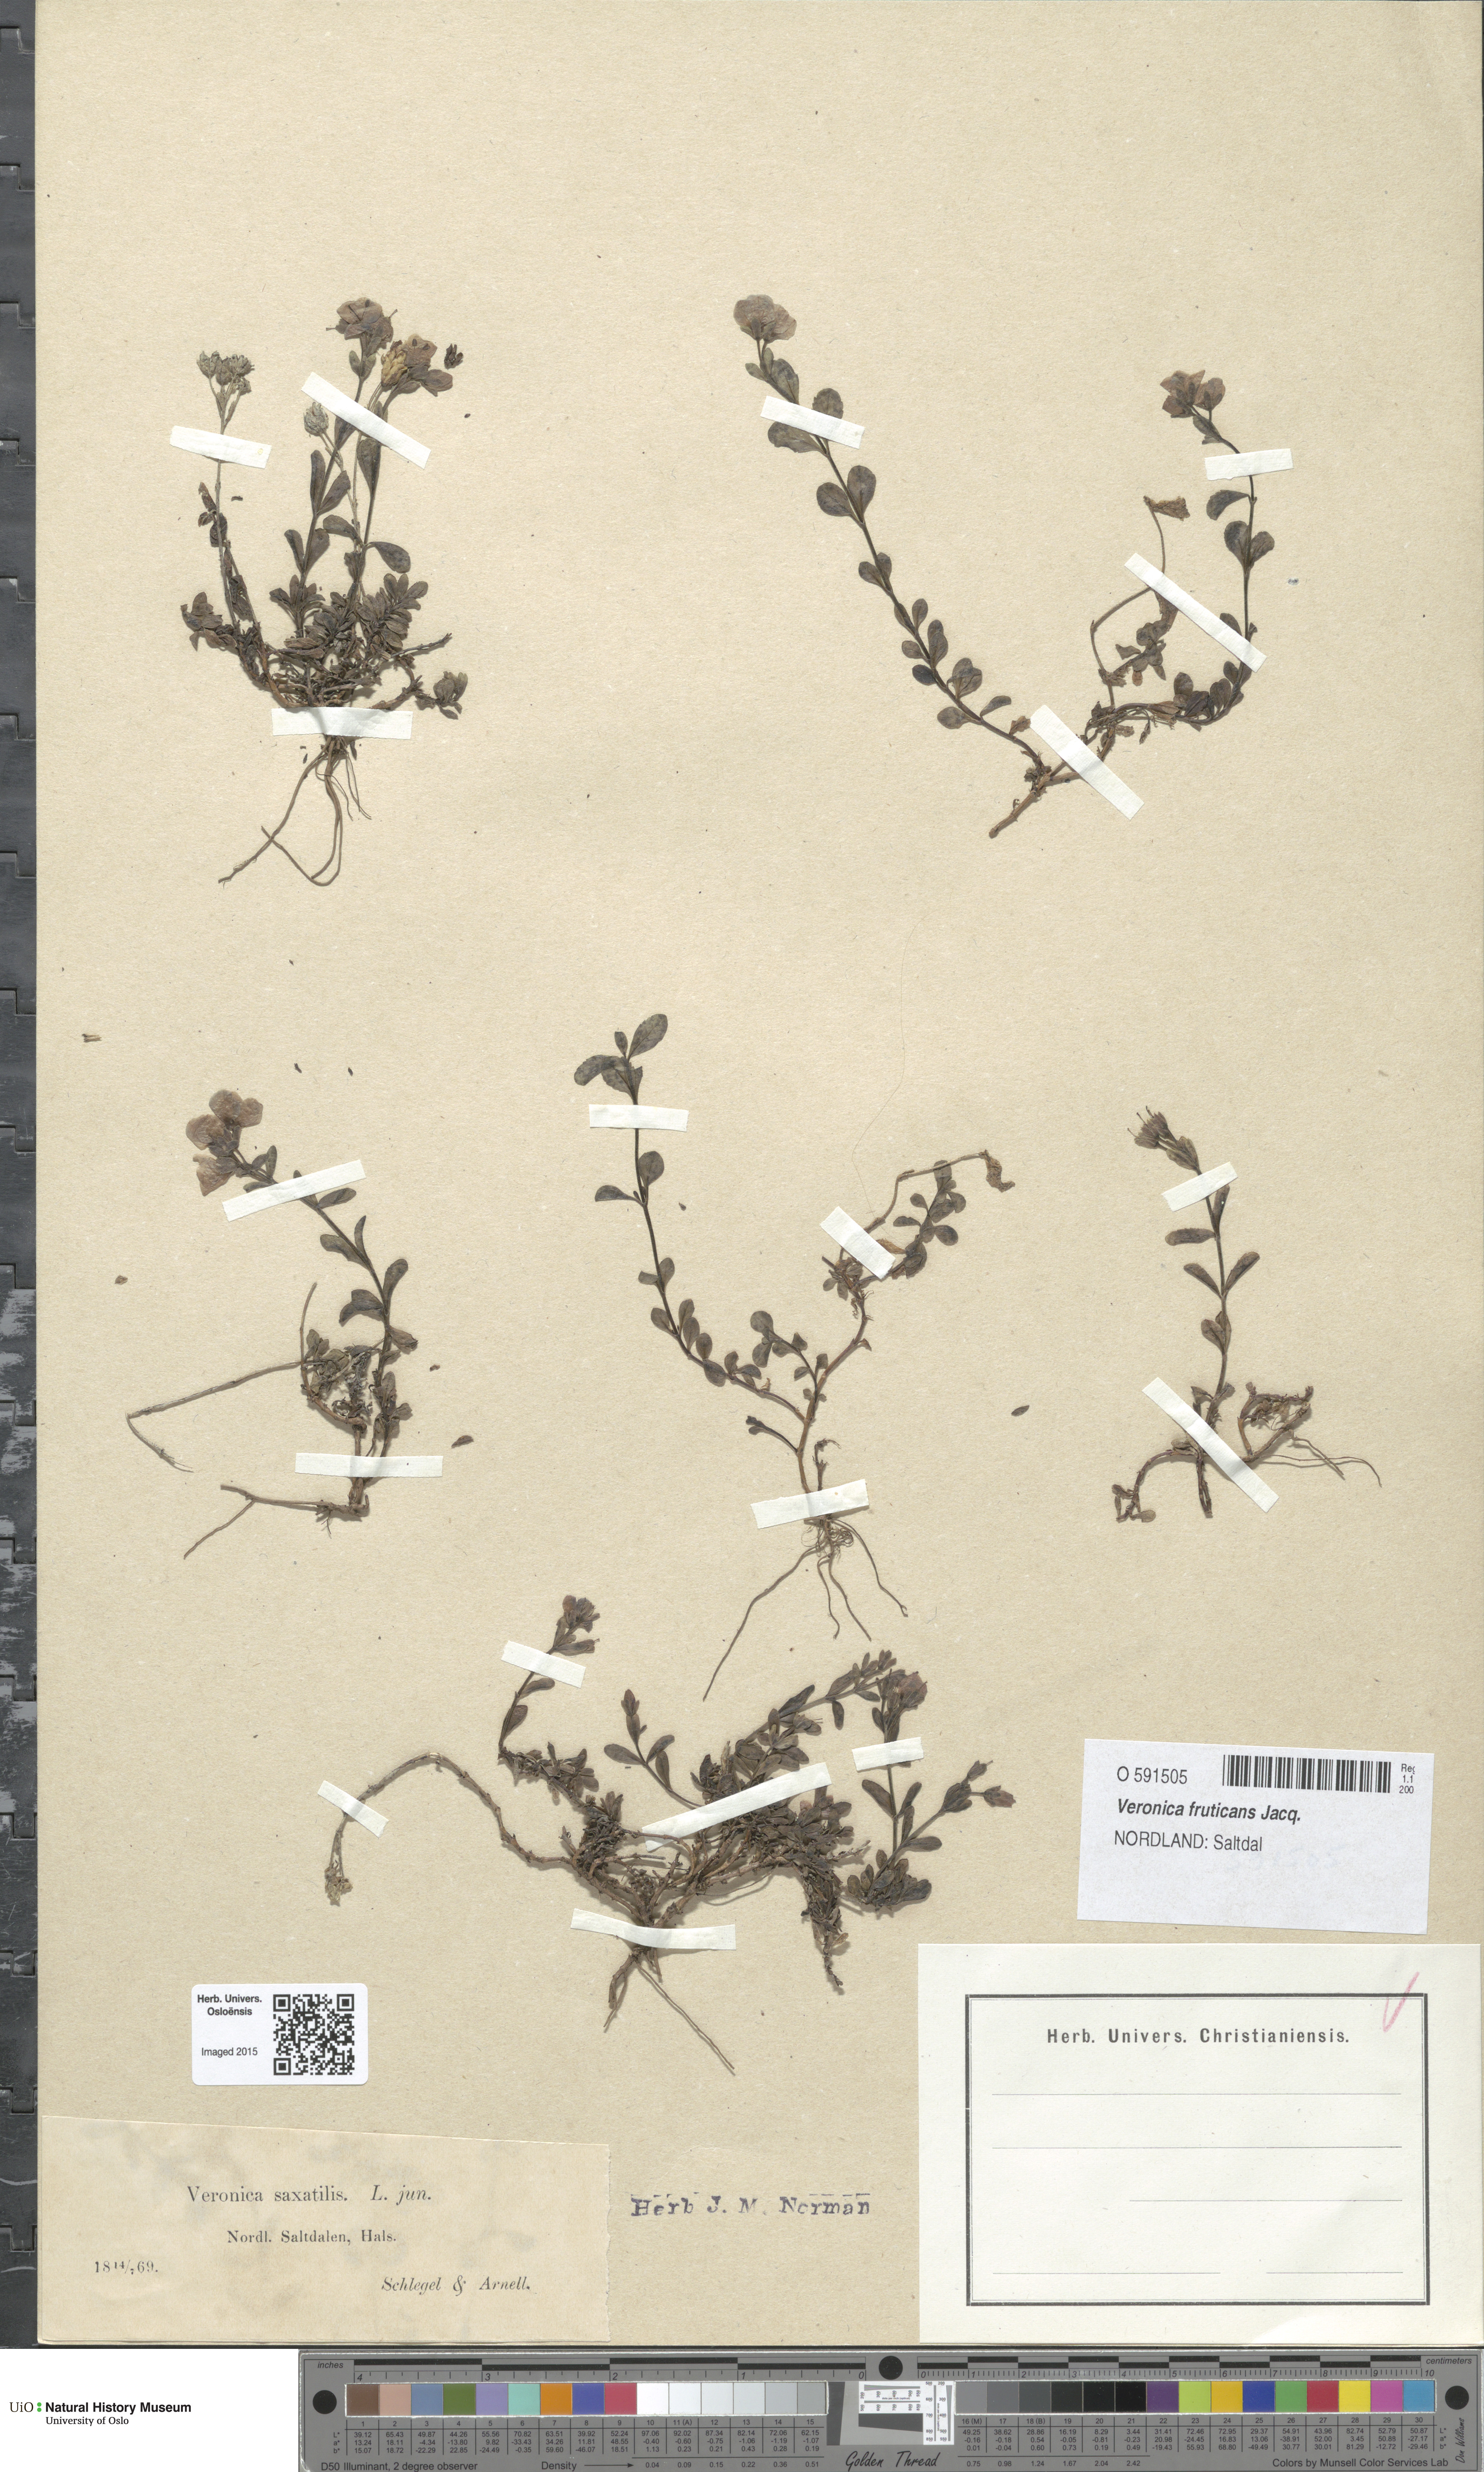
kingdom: Plantae
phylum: Tracheophyta
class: Magnoliopsida
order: Lamiales
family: Plantaginaceae
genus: Veronica
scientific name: Veronica fruticans
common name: Rock speedwell
